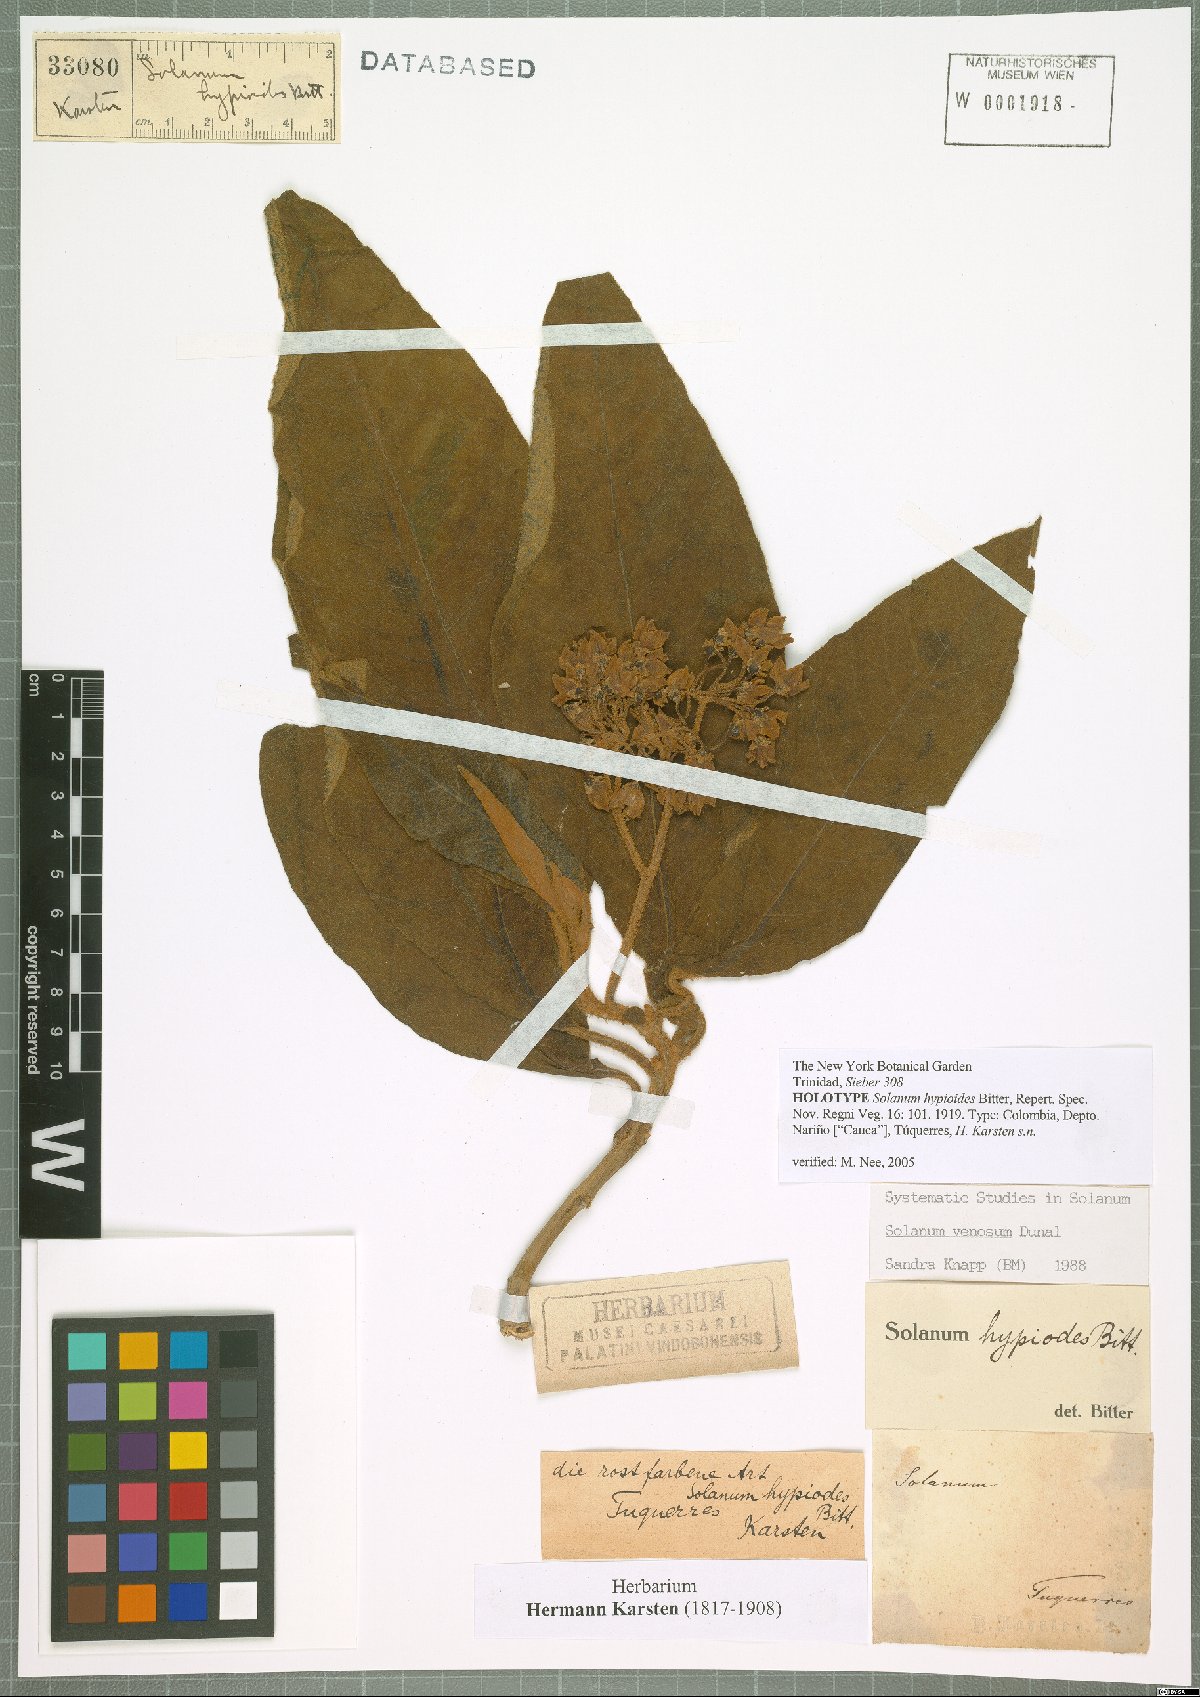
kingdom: Plantae
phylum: Tracheophyta
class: Magnoliopsida
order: Solanales
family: Solanaceae
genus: Solanum
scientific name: Solanum venosum
